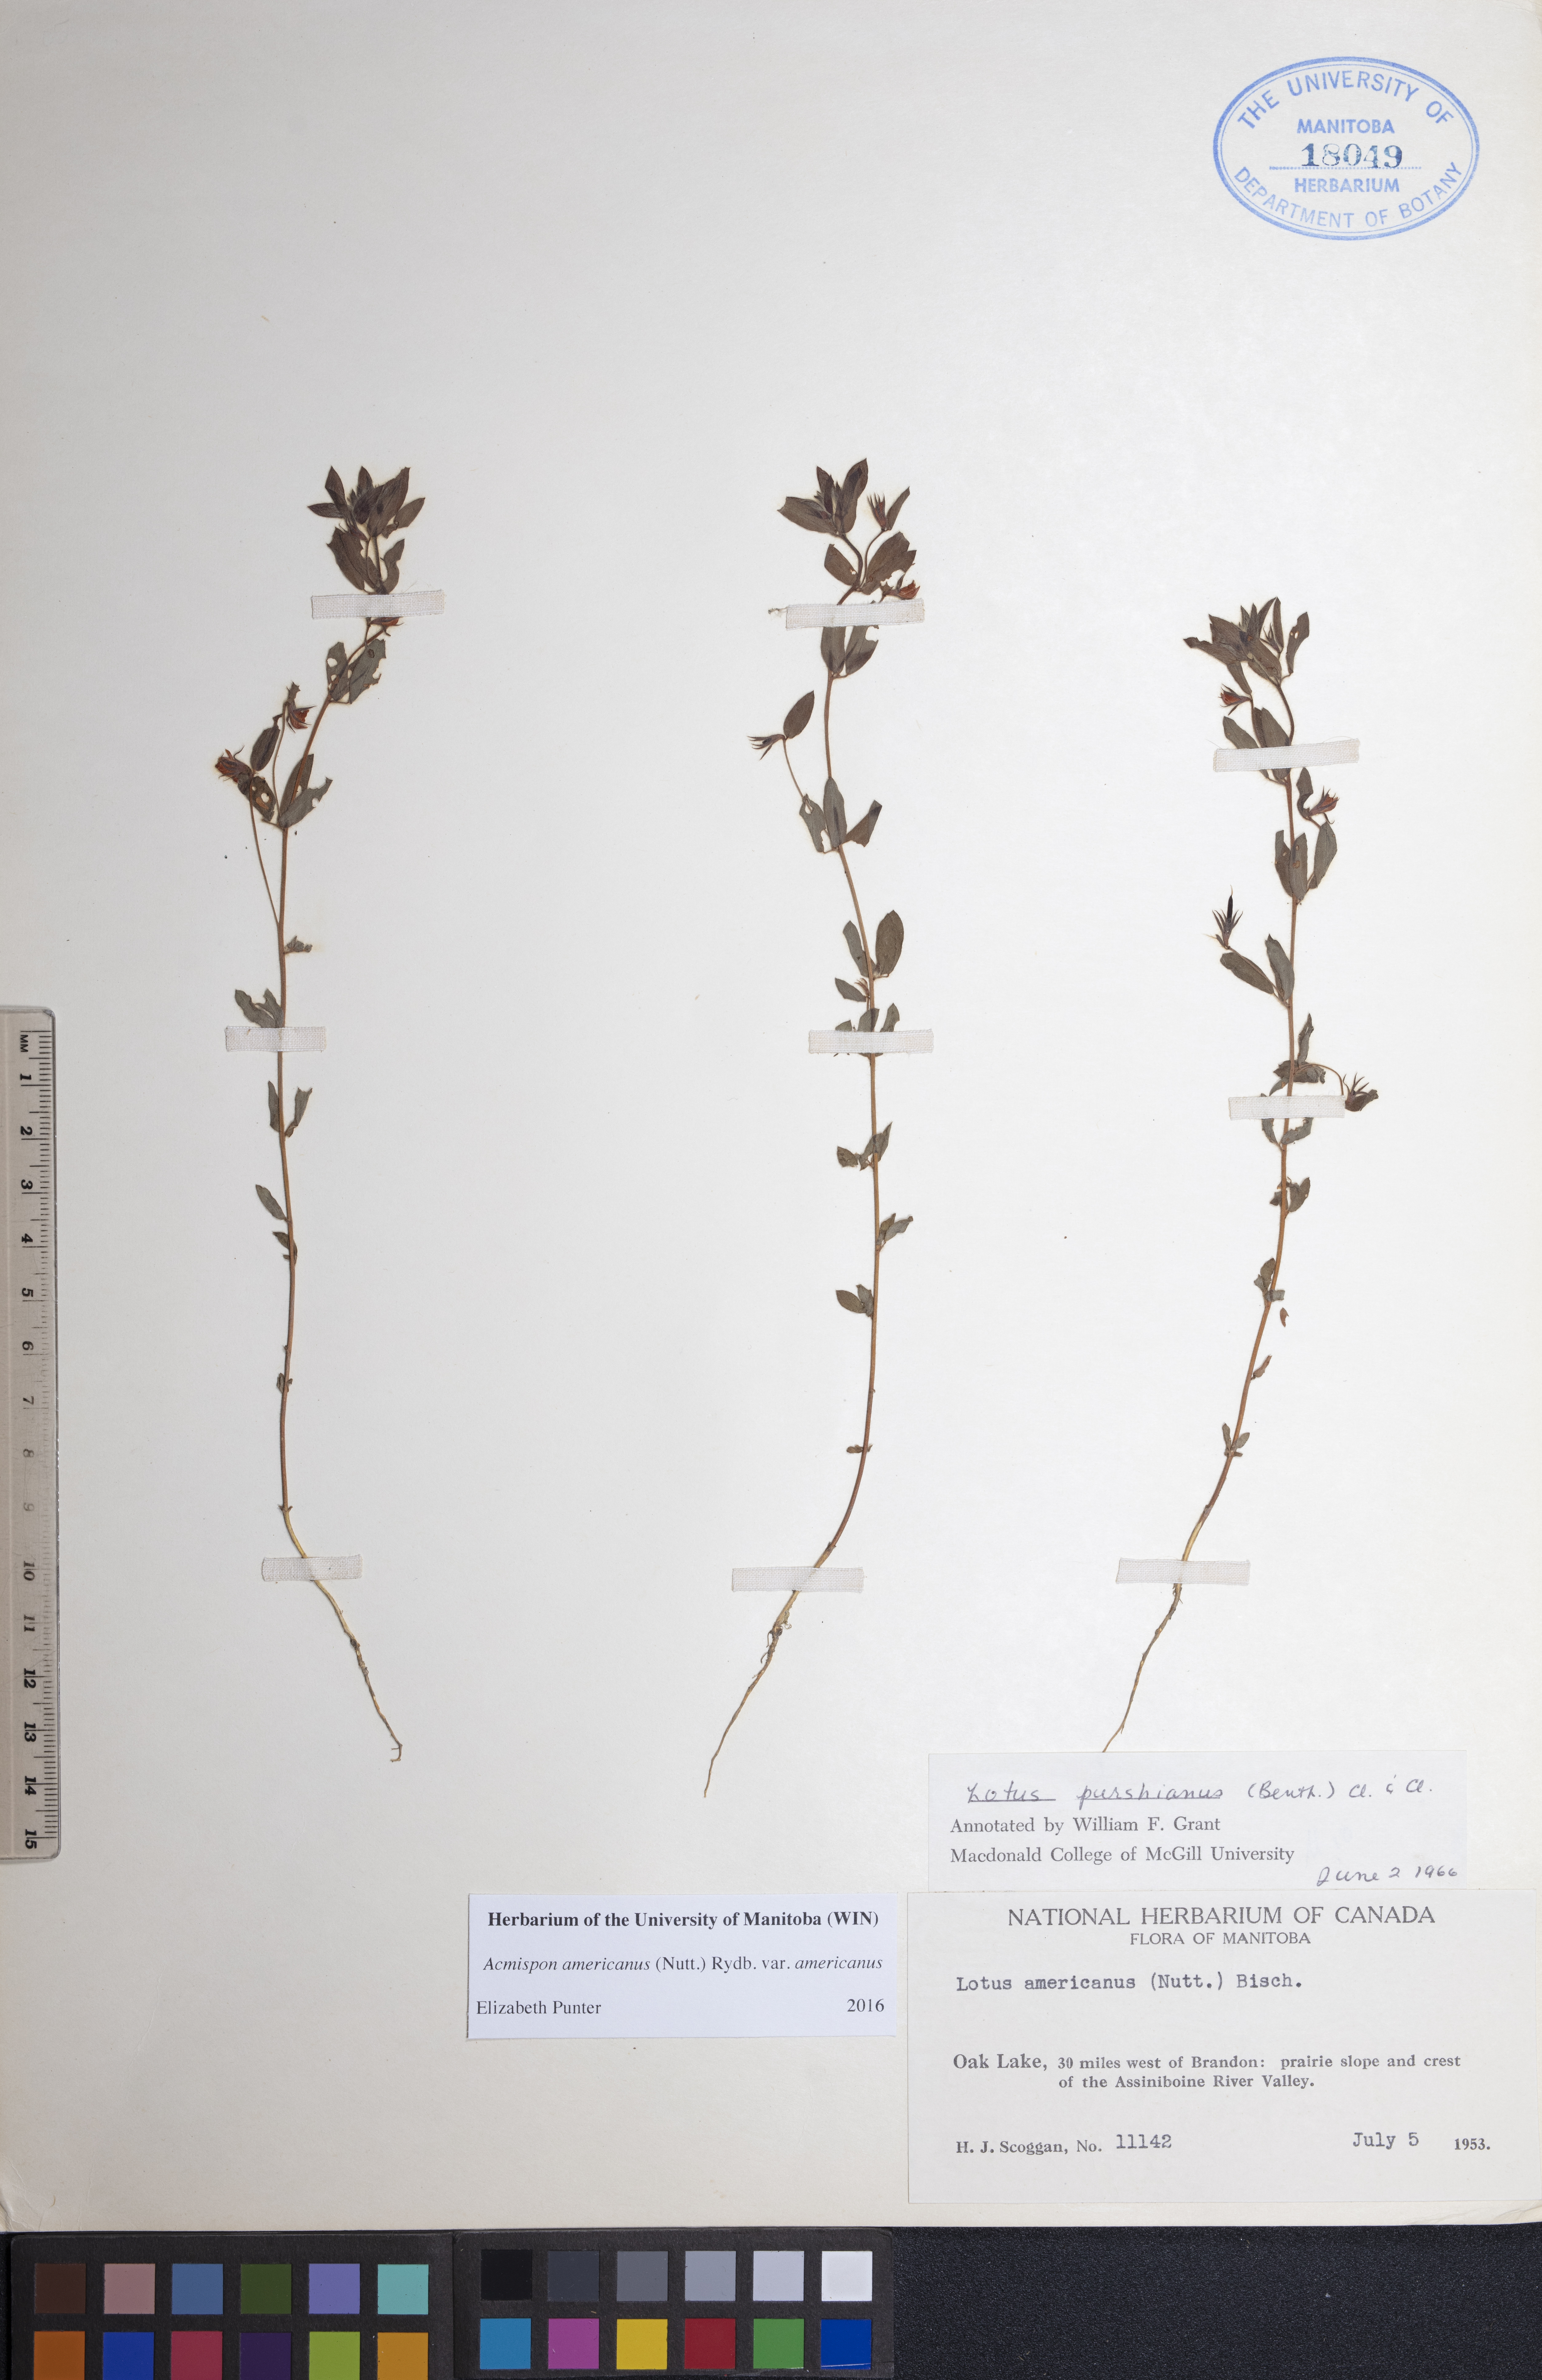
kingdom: Plantae
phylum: Tracheophyta
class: Magnoliopsida
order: Fabales
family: Fabaceae
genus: Acmispon
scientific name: Acmispon americanus
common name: American bird's-foot trefoil
